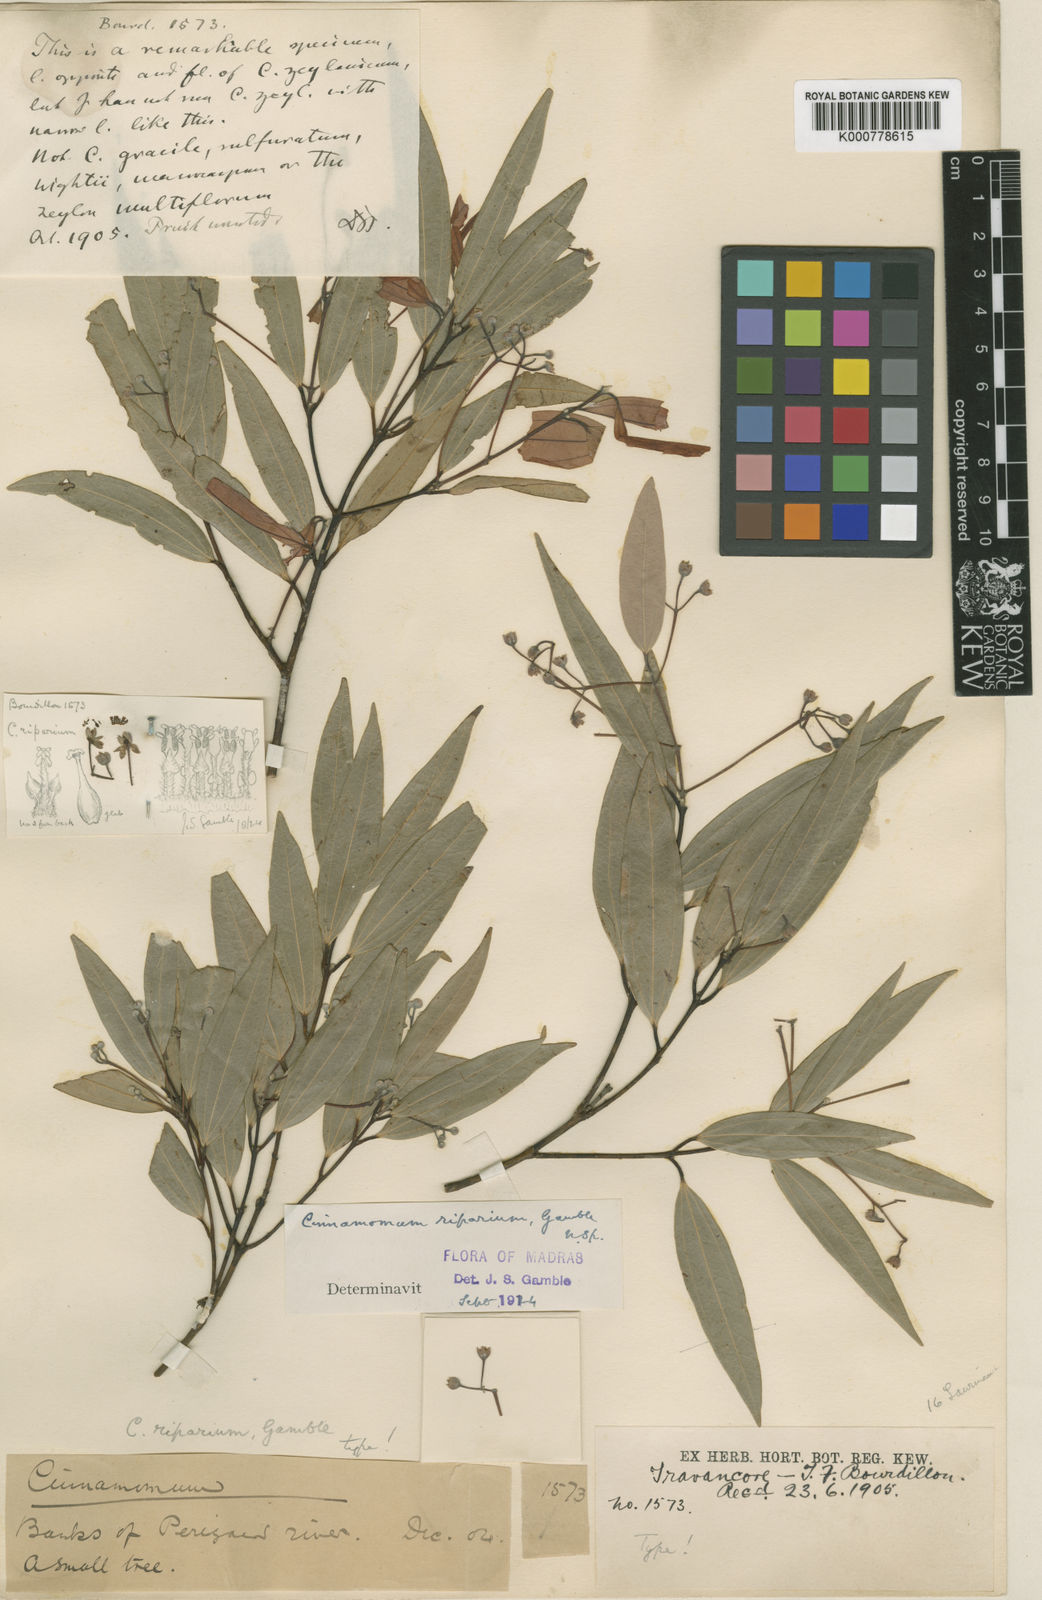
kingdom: Plantae
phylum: Tracheophyta
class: Magnoliopsida
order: Laurales
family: Lauraceae
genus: Cinnamomum
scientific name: Cinnamomum riparium
